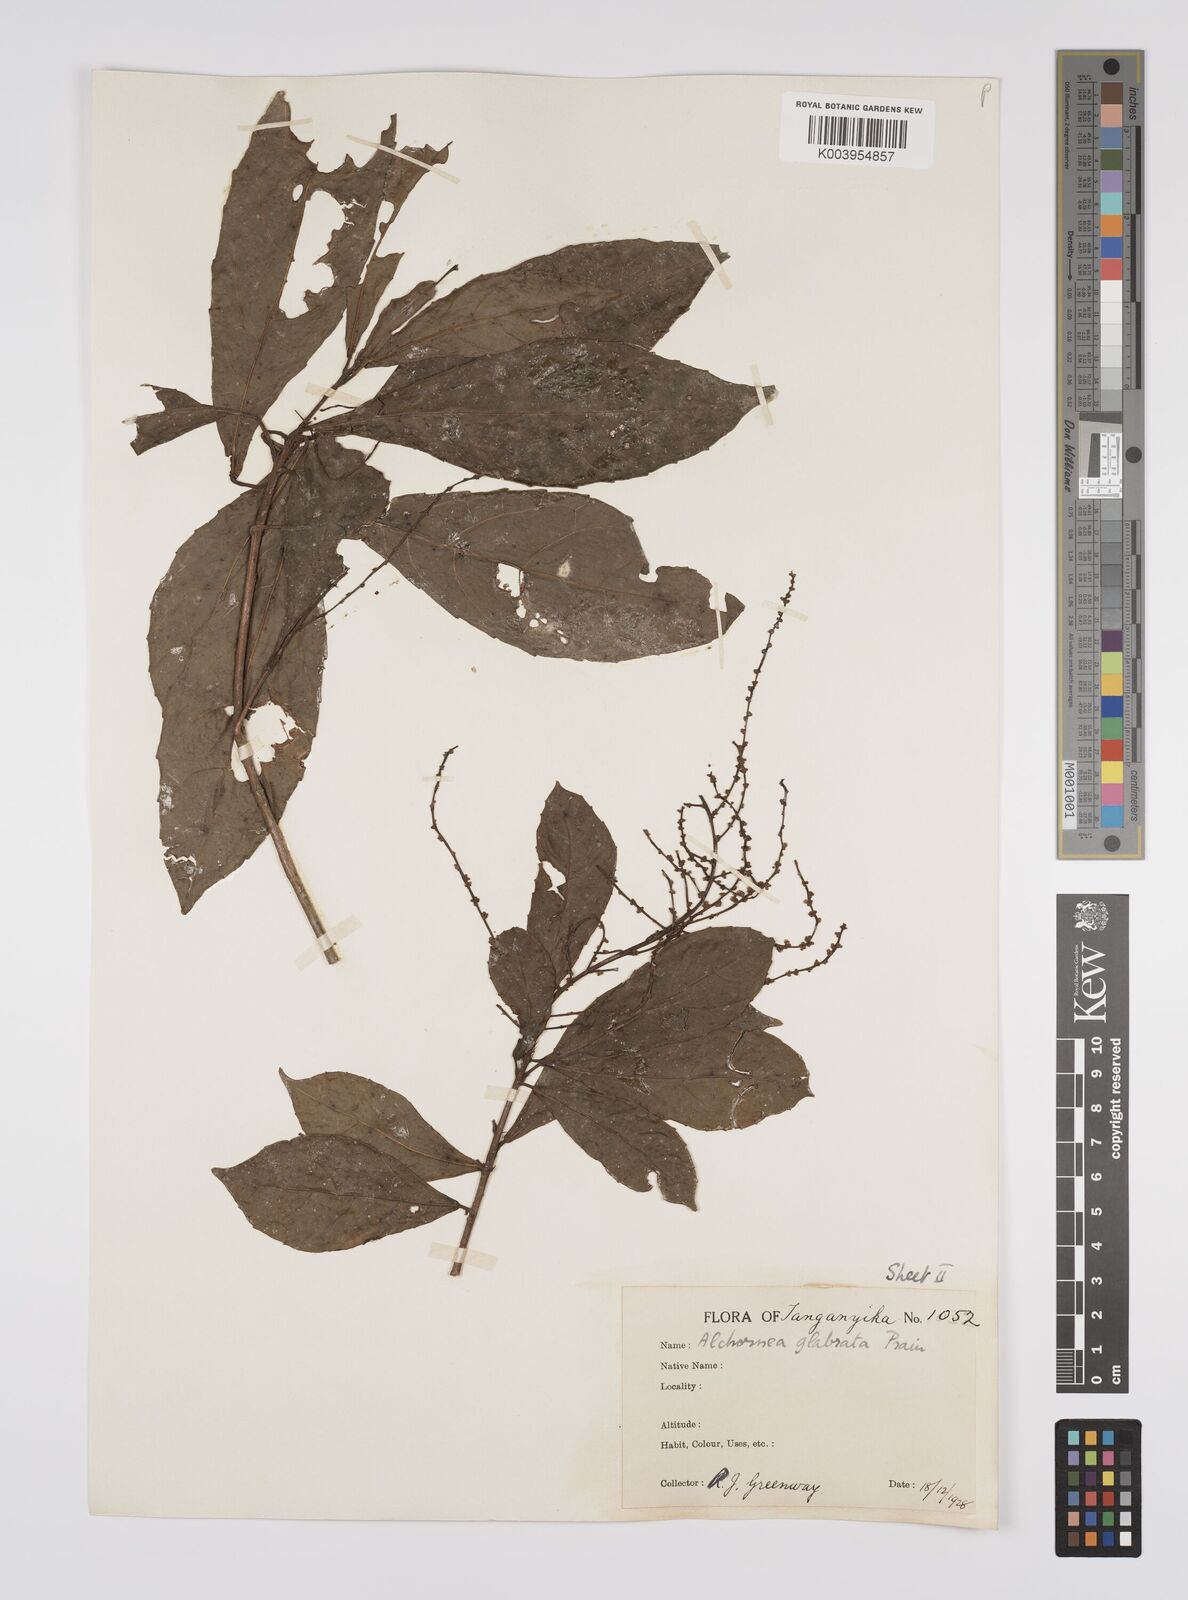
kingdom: Plantae
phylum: Tracheophyta
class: Magnoliopsida
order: Malpighiales
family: Euphorbiaceae
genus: Alchornea
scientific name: Alchornea hirtella
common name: Forest bead-string
